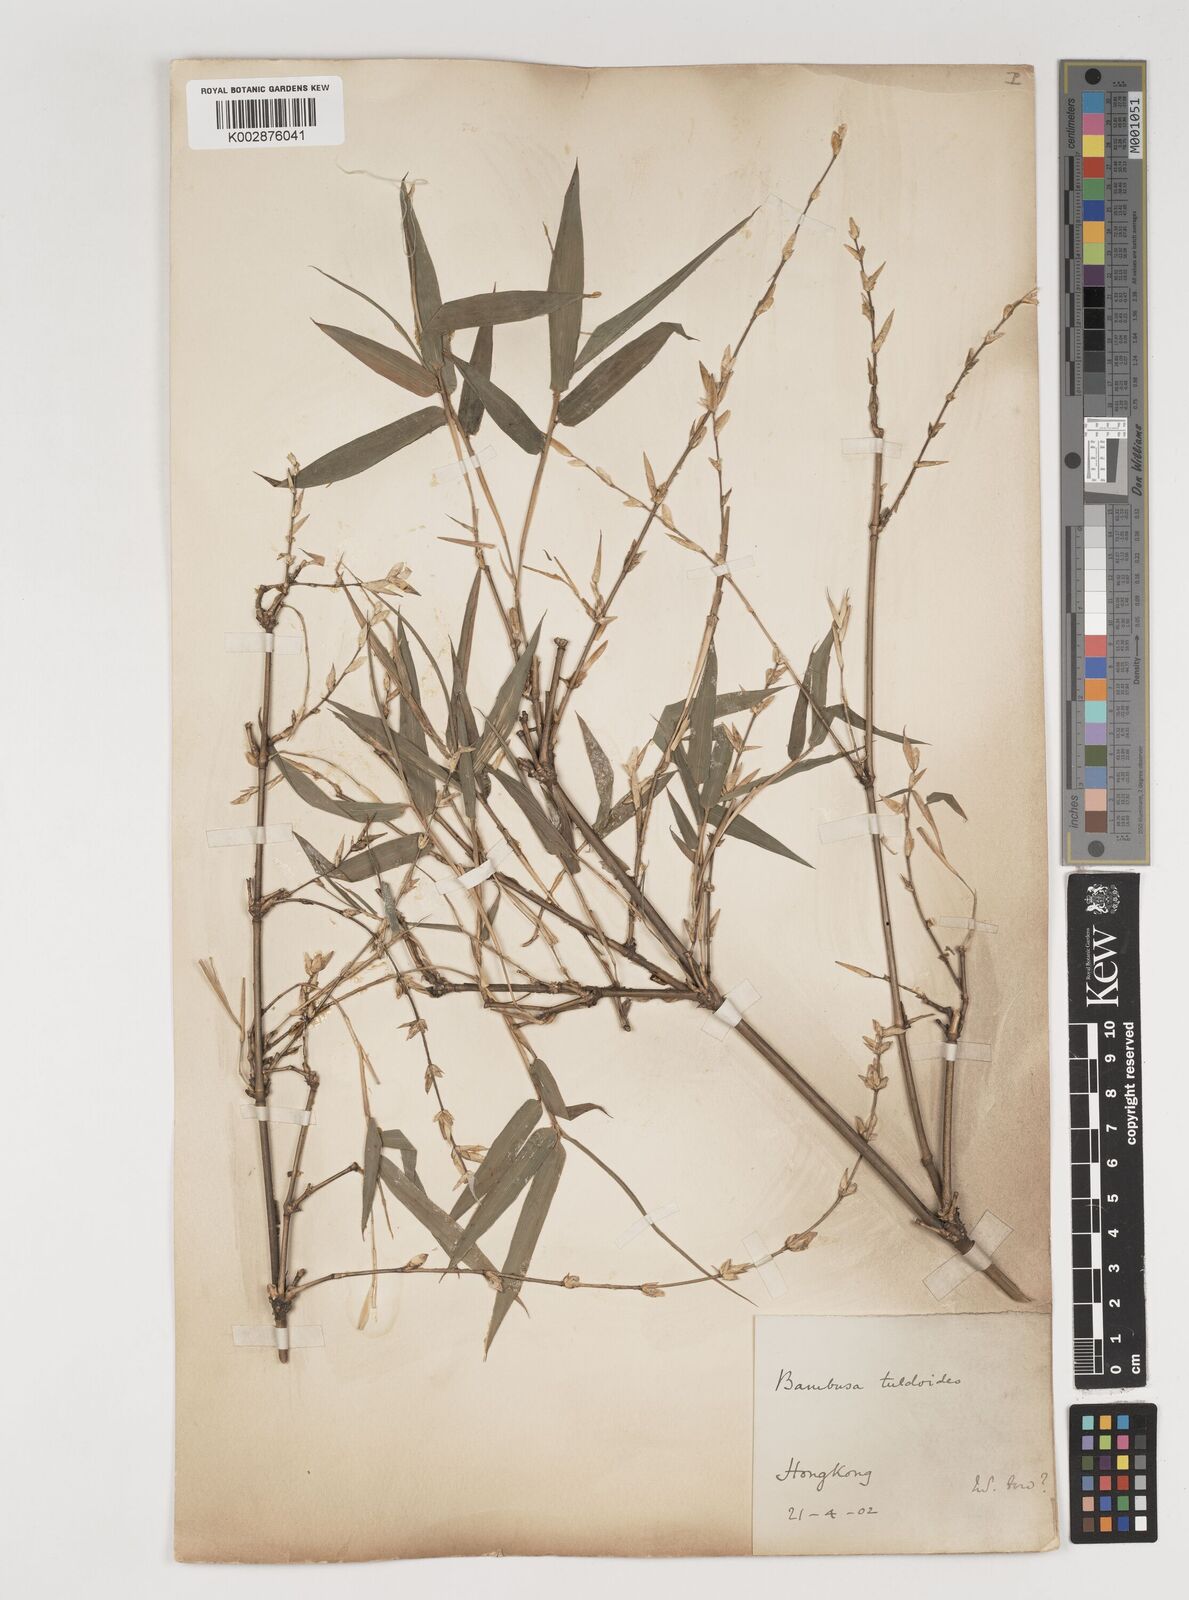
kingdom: Plantae
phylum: Tracheophyta
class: Liliopsida
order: Poales
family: Poaceae
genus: Bambusa
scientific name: Bambusa tuldoides
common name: Verdant bamboo
